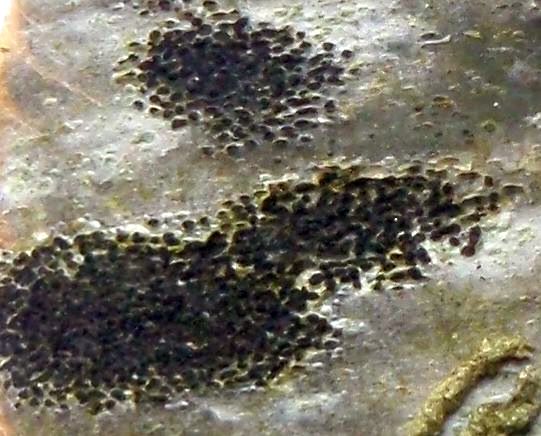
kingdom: Fungi
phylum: Ascomycota
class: Leotiomycetes
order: Rhytismatales
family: Ascodichaenaceae
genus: Ascodichaena
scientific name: Ascodichaena rugosa
